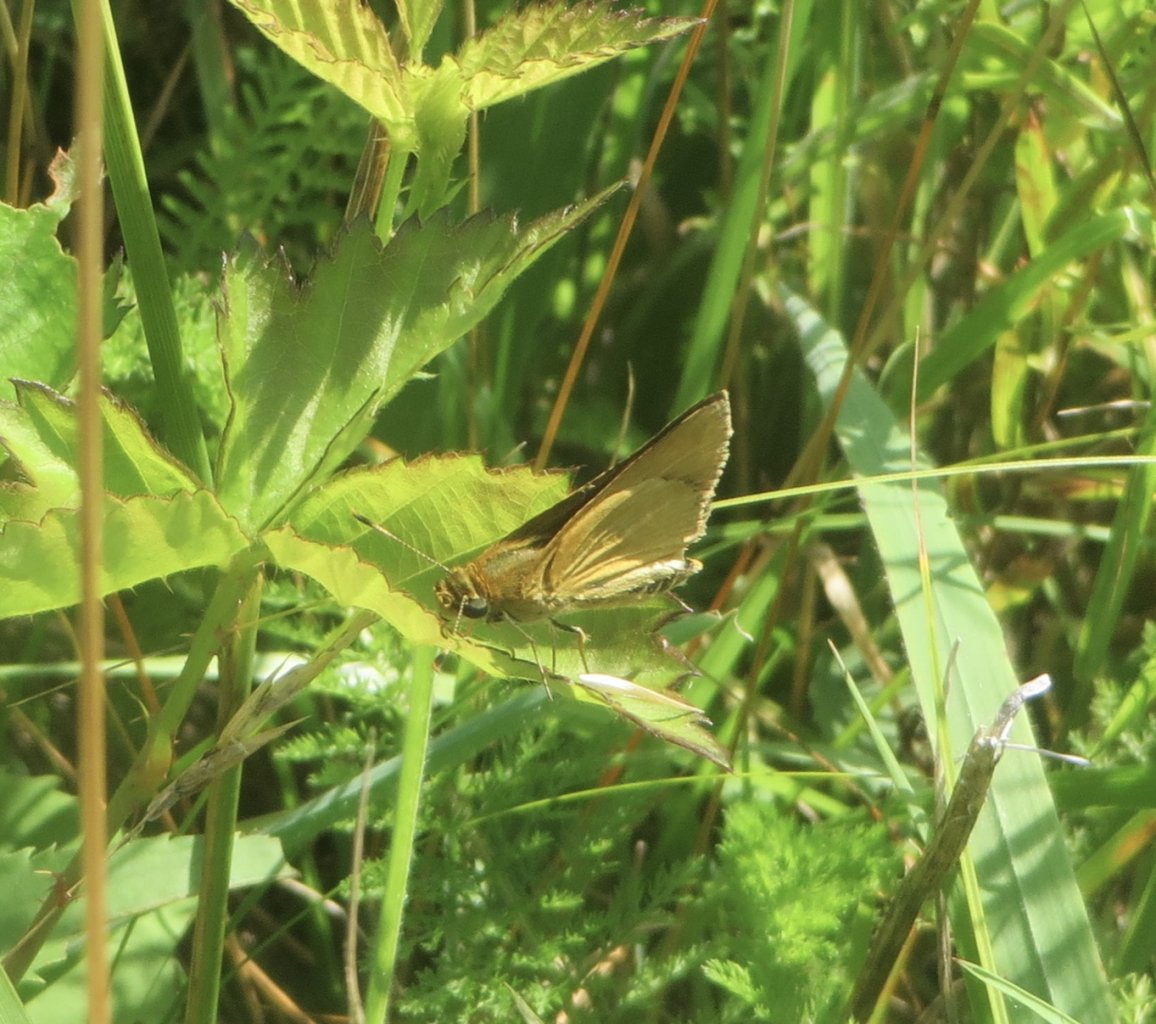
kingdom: Animalia
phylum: Arthropoda
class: Insecta
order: Lepidoptera
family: Hesperiidae
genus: Atrytone
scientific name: Atrytone delaware
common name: Delaware Skipper
